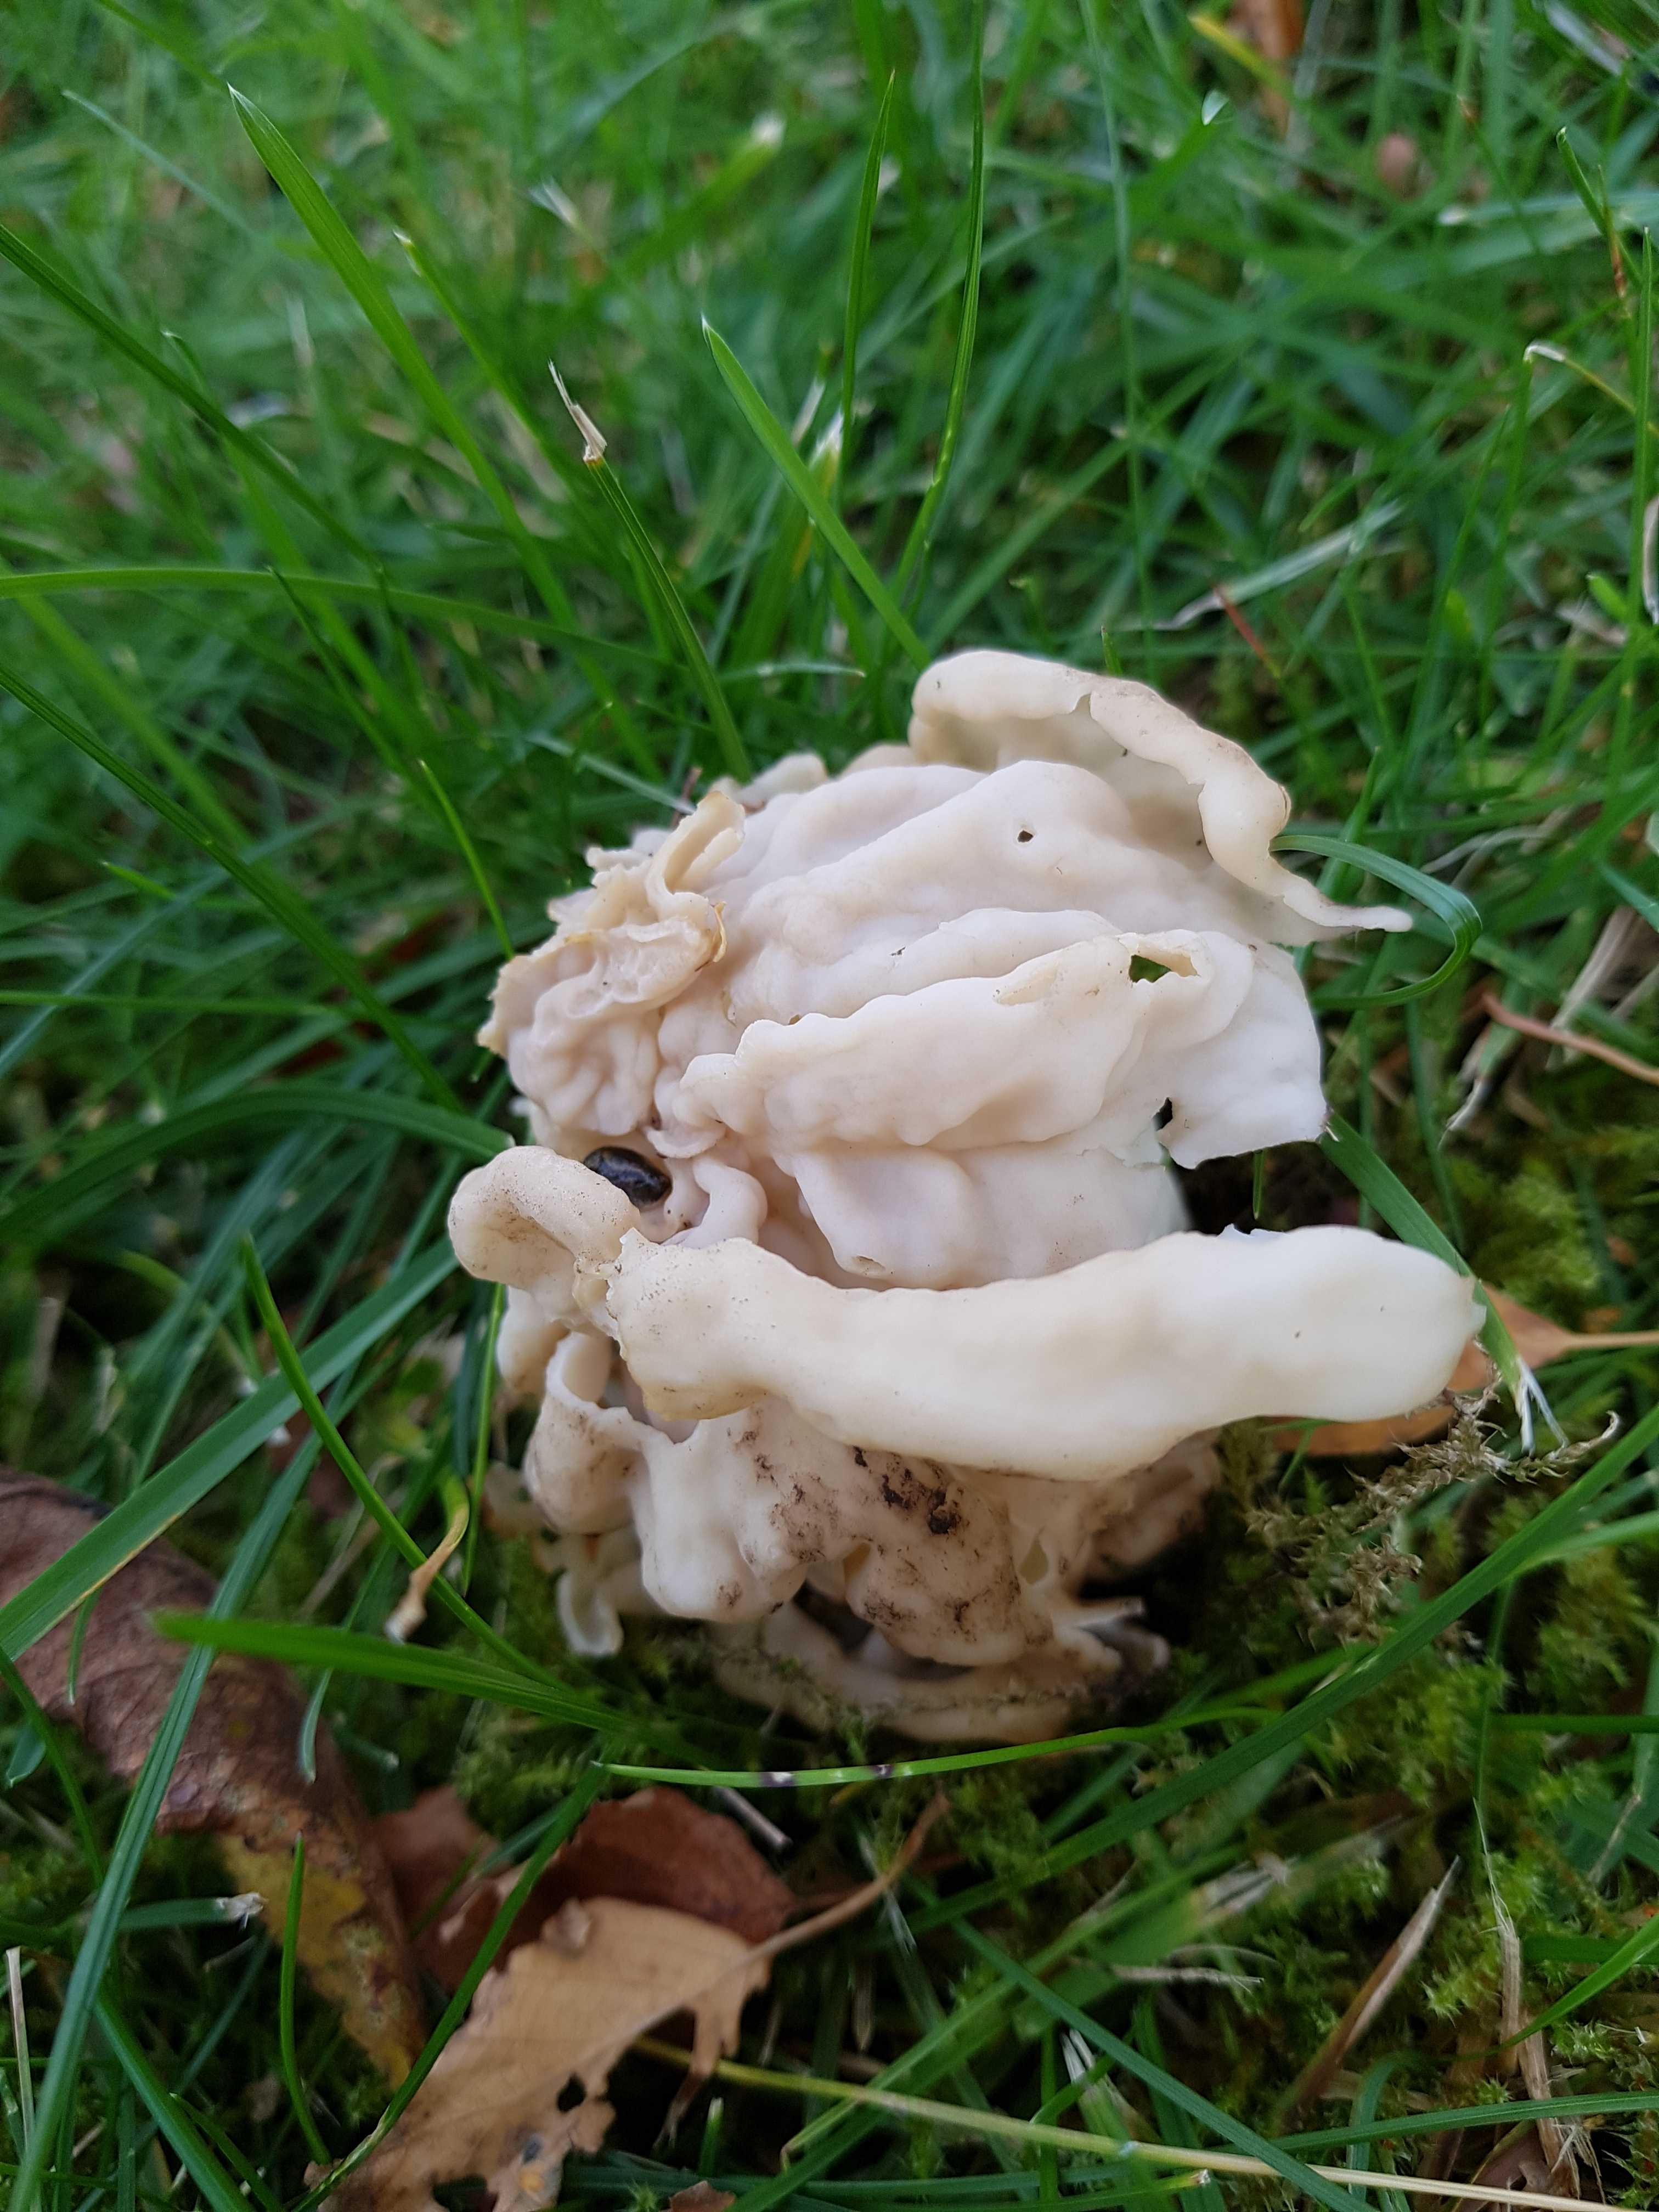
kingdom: Fungi
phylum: Ascomycota
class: Pezizomycetes
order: Pezizales
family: Helvellaceae
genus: Helvella
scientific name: Helvella crispa
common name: kruset foldhat
